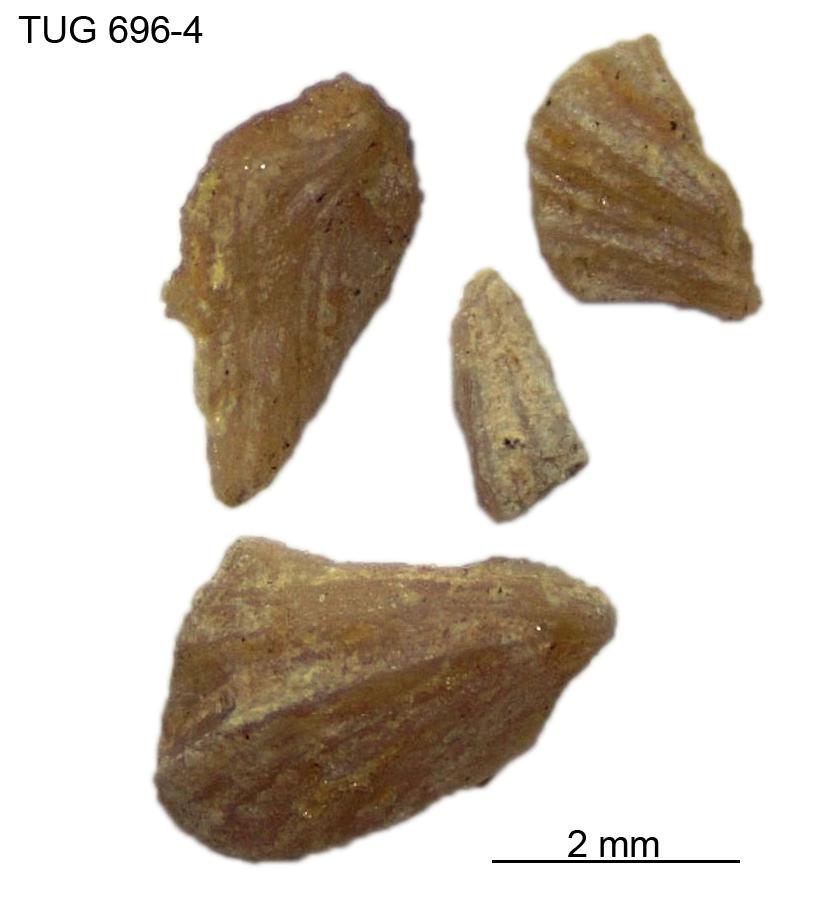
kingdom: Animalia
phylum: Brachiopoda
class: Rhynchonellata
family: Dicoelosiidae
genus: Dicoelosia
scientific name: Dicoelosia anticipata
